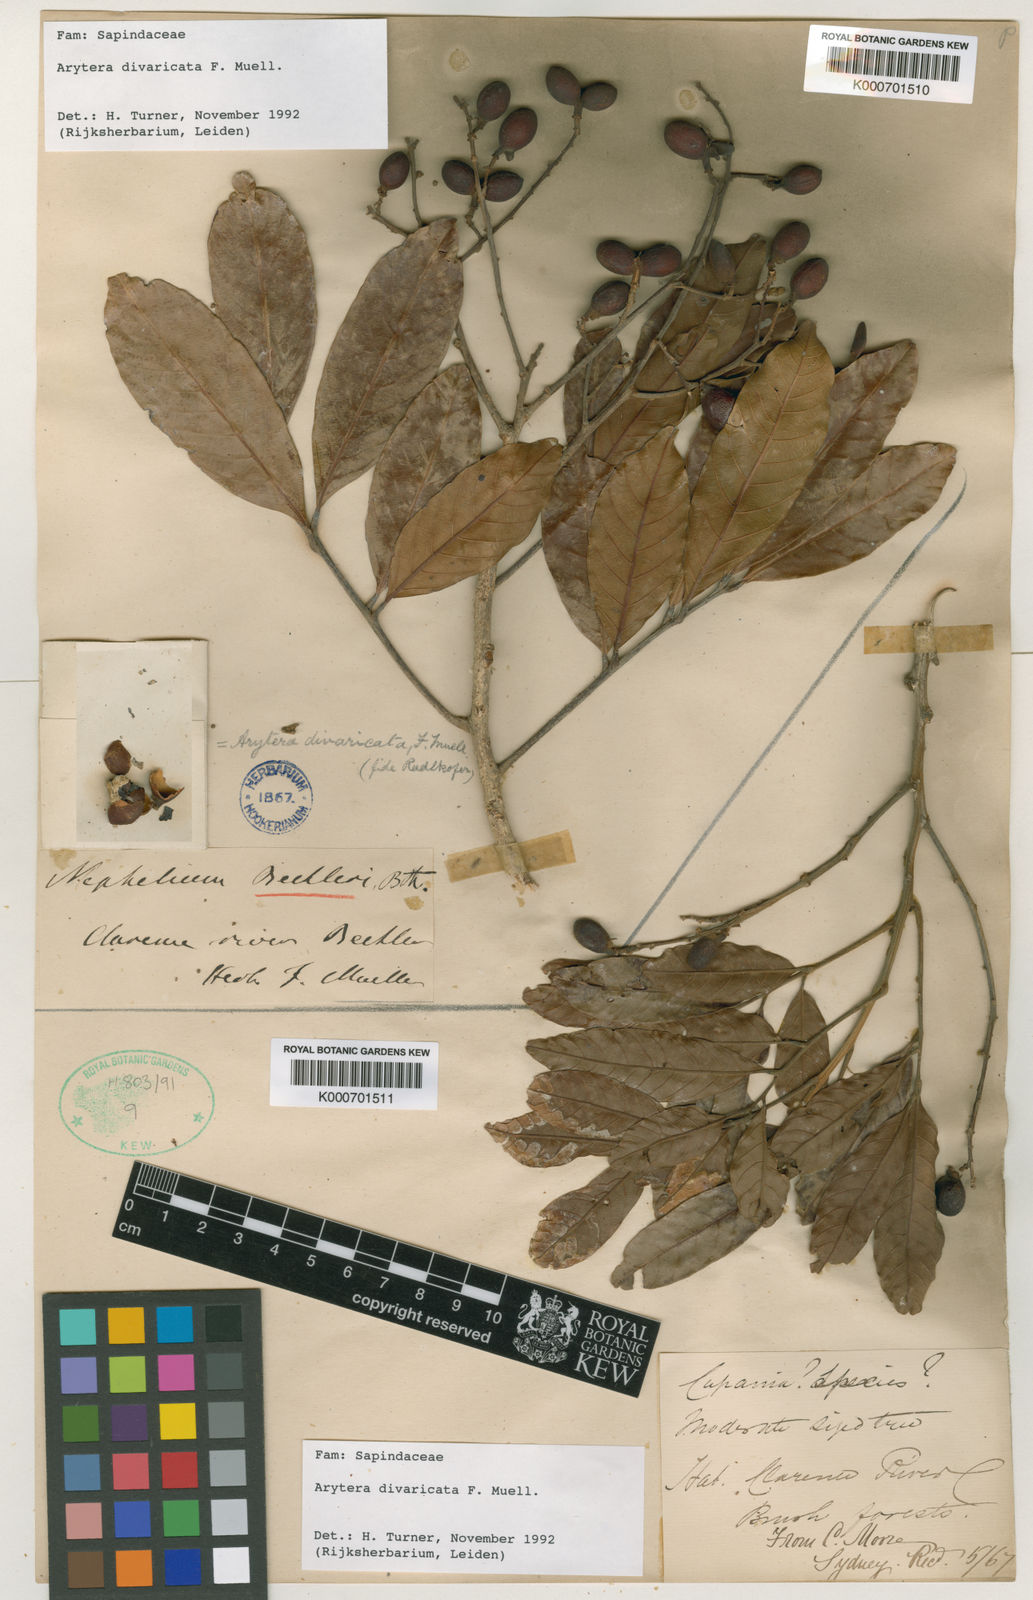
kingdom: Plantae
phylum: Tracheophyta
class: Magnoliopsida
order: Sapindales
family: Sapindaceae
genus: Arytera
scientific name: Arytera divaricata
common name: Coogera
